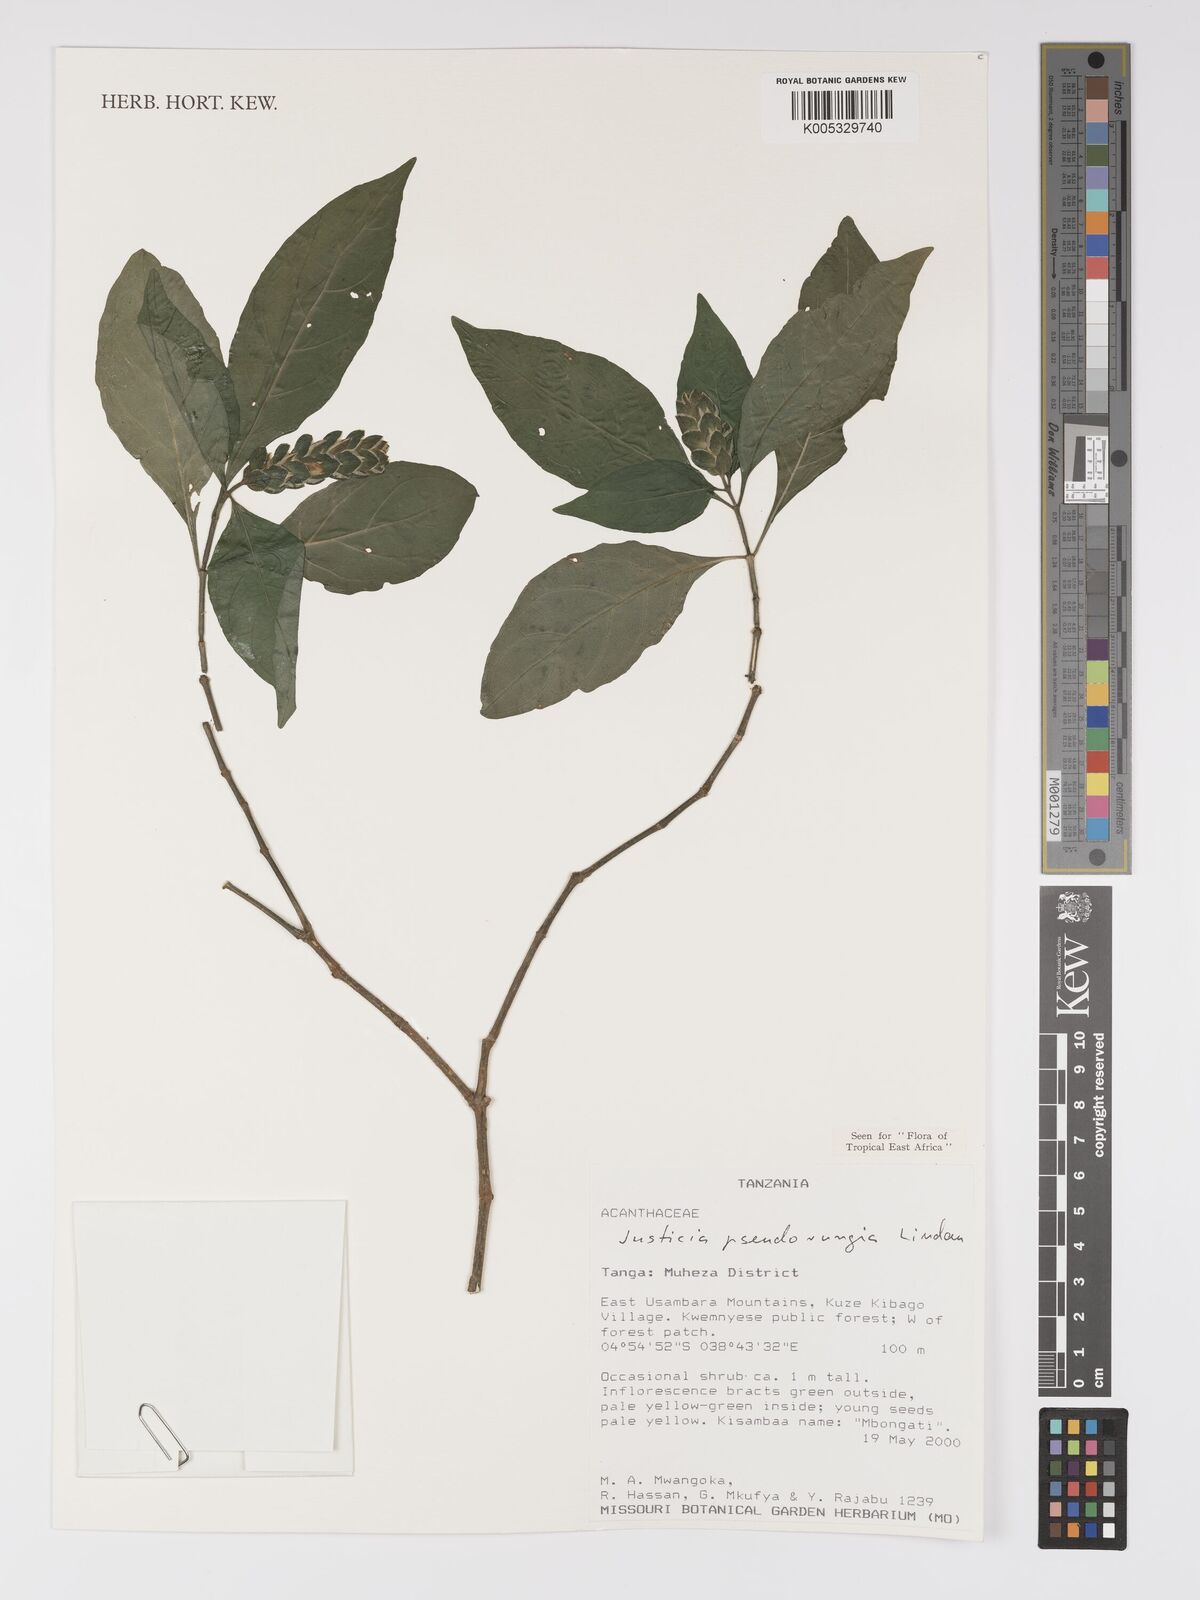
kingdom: Plantae
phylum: Tracheophyta
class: Magnoliopsida
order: Lamiales
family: Acanthaceae
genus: Justicia
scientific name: Justicia pseudorungia
